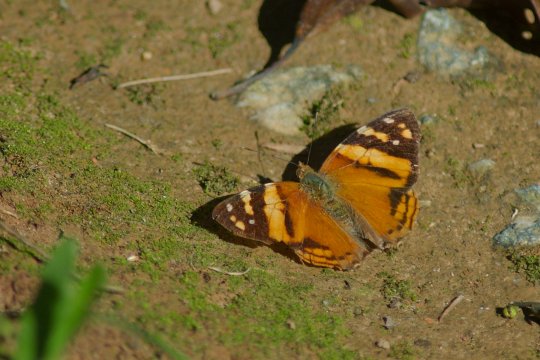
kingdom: Animalia
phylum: Arthropoda
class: Insecta
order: Lepidoptera
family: Nymphalidae
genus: Hypanartia
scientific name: Hypanartia lethe
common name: Orange Mapwing
